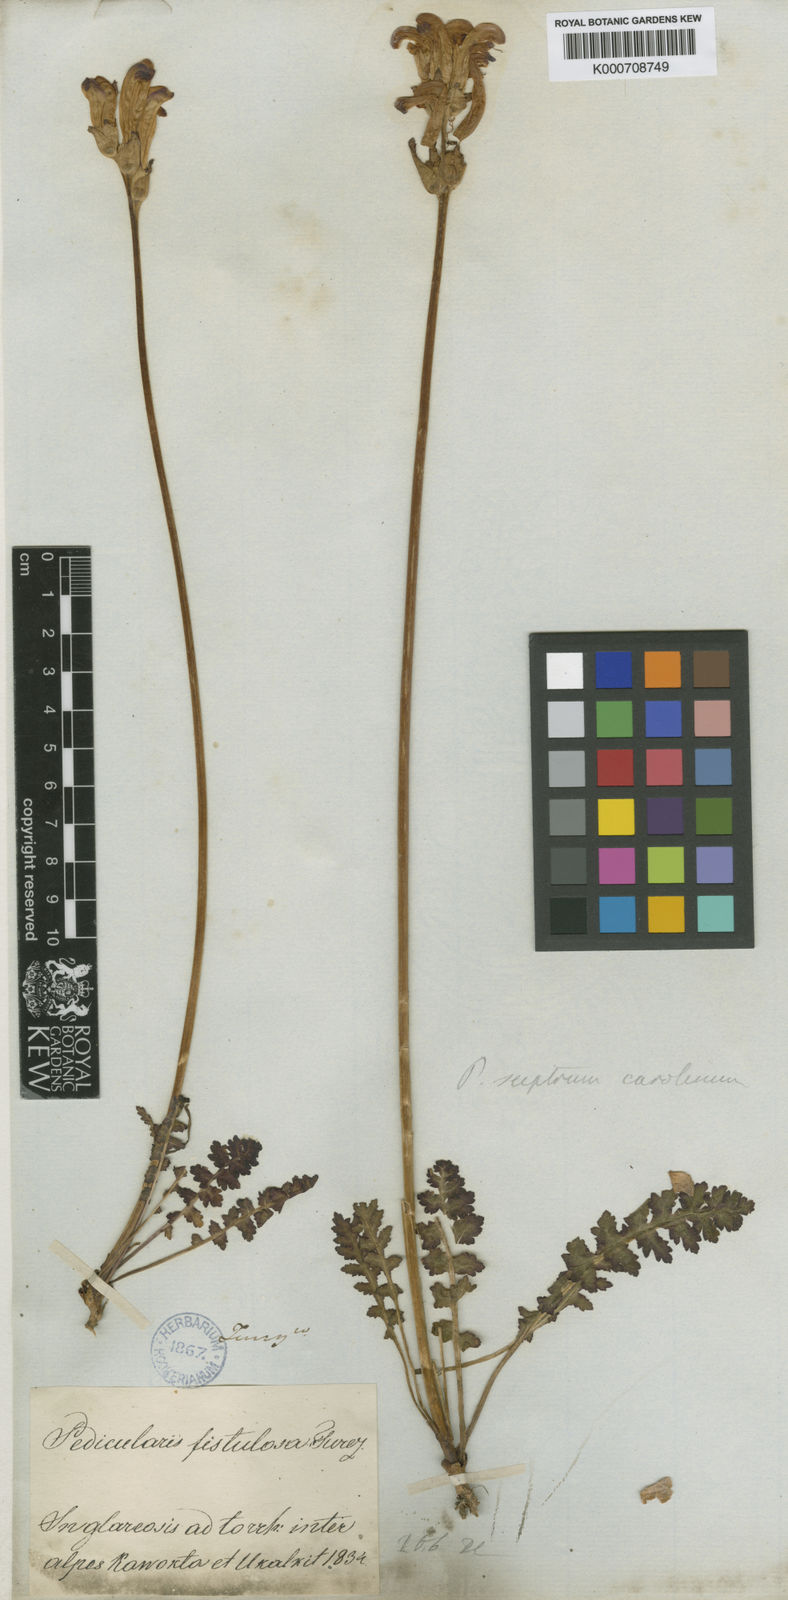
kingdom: Plantae
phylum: Tracheophyta
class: Magnoliopsida
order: Lamiales
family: Orobanchaceae
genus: Pedicularis
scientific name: Pedicularis sceptrum-carolinum
